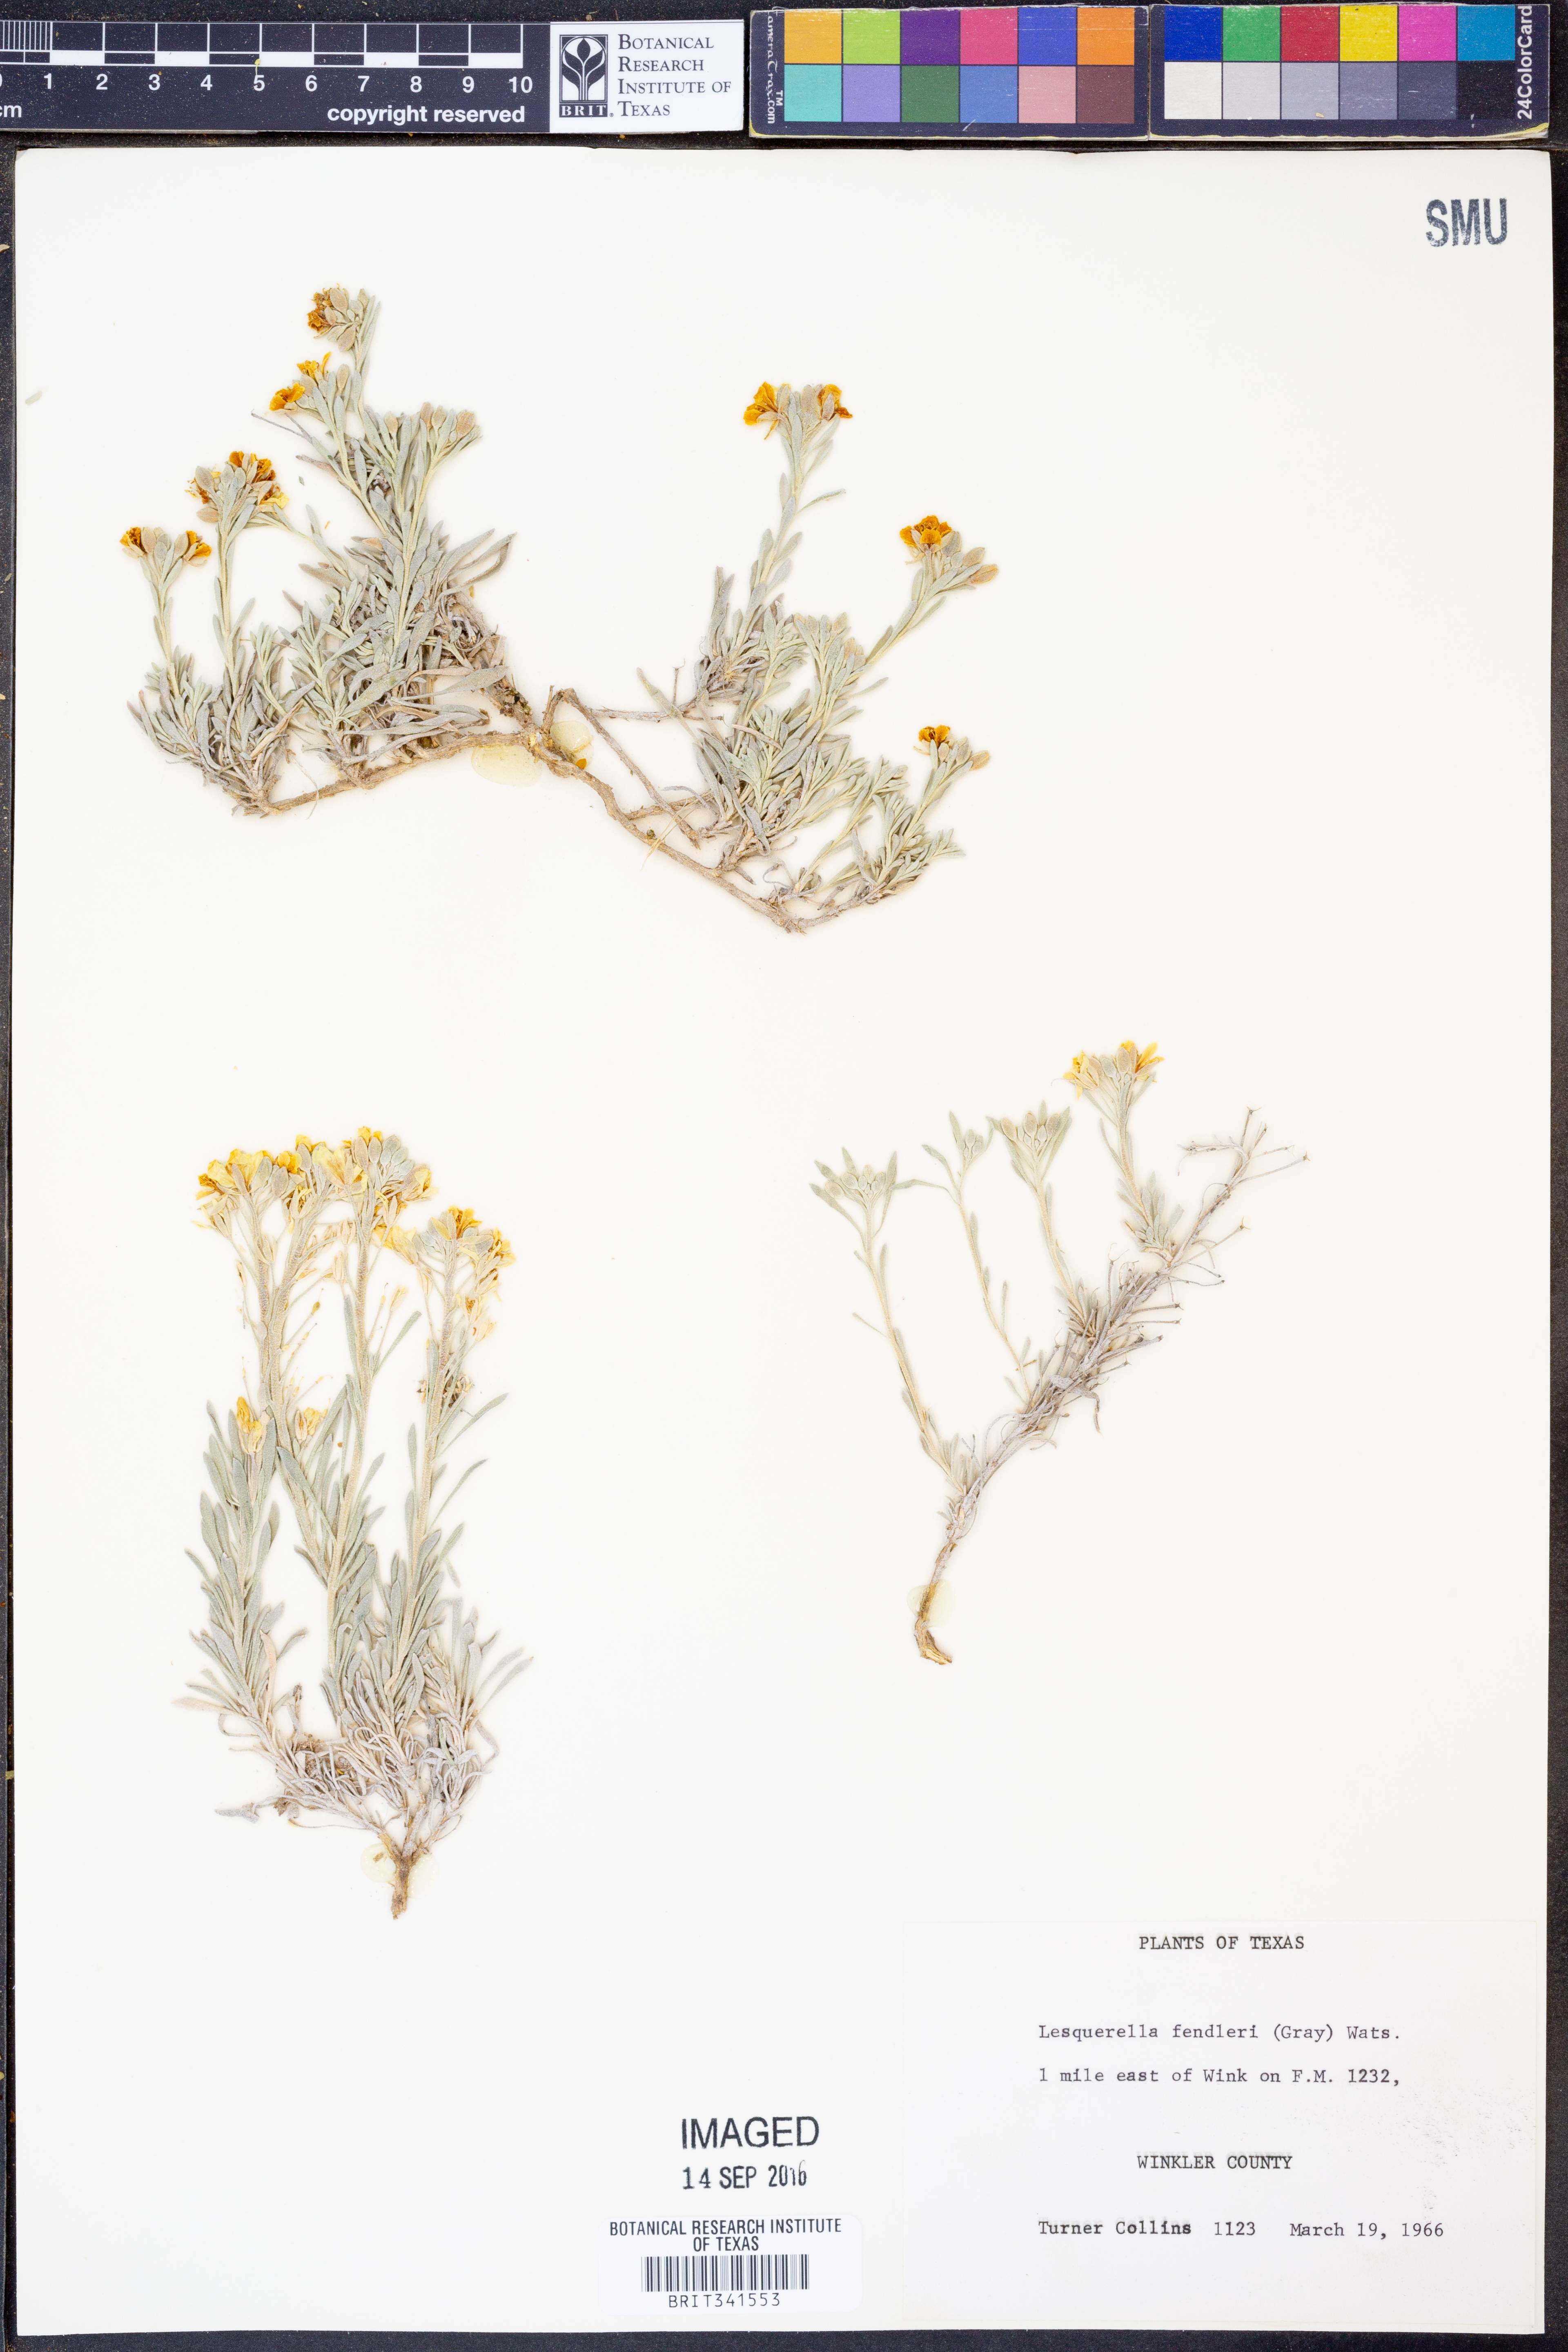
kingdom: Plantae
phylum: Tracheophyta
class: Magnoliopsida
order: Brassicales
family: Brassicaceae
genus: Physaria
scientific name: Physaria fendleri
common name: Fendler's bladderpod
